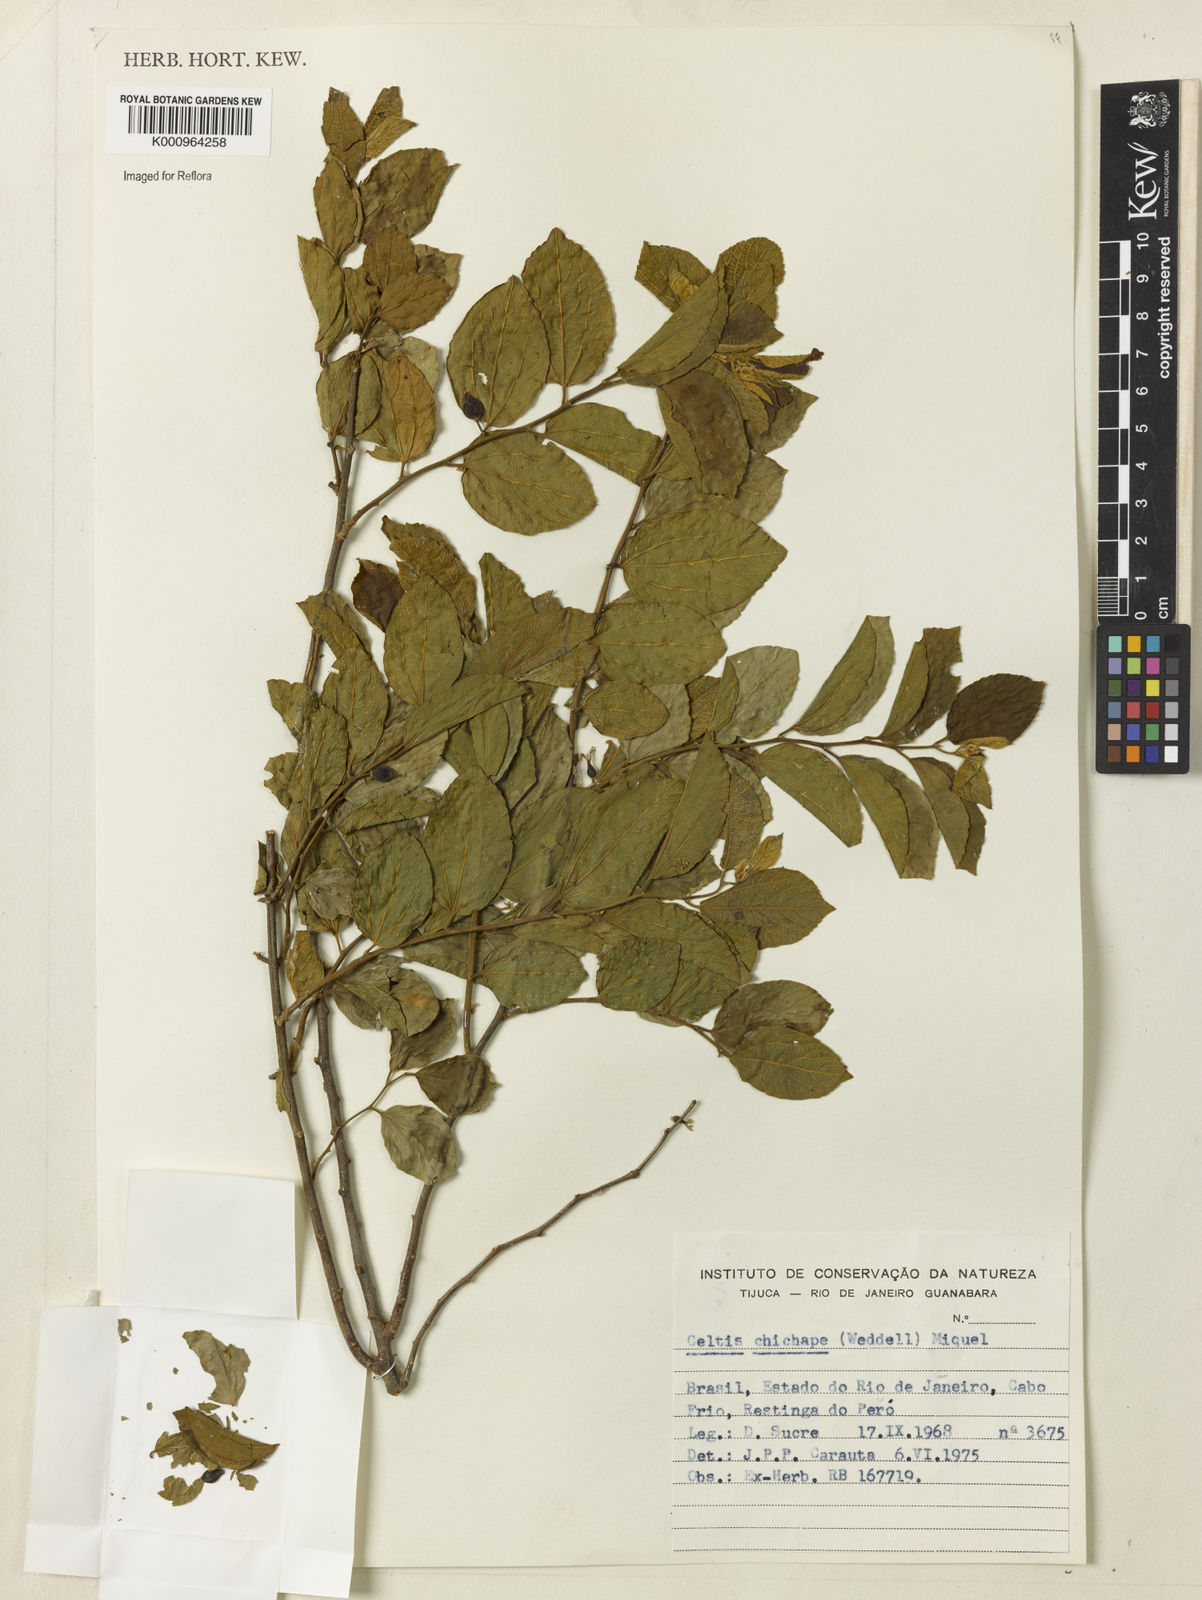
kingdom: Plantae
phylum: Tracheophyta
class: Magnoliopsida
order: Rosales
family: Cannabaceae
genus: Celtis
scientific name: Celtis
